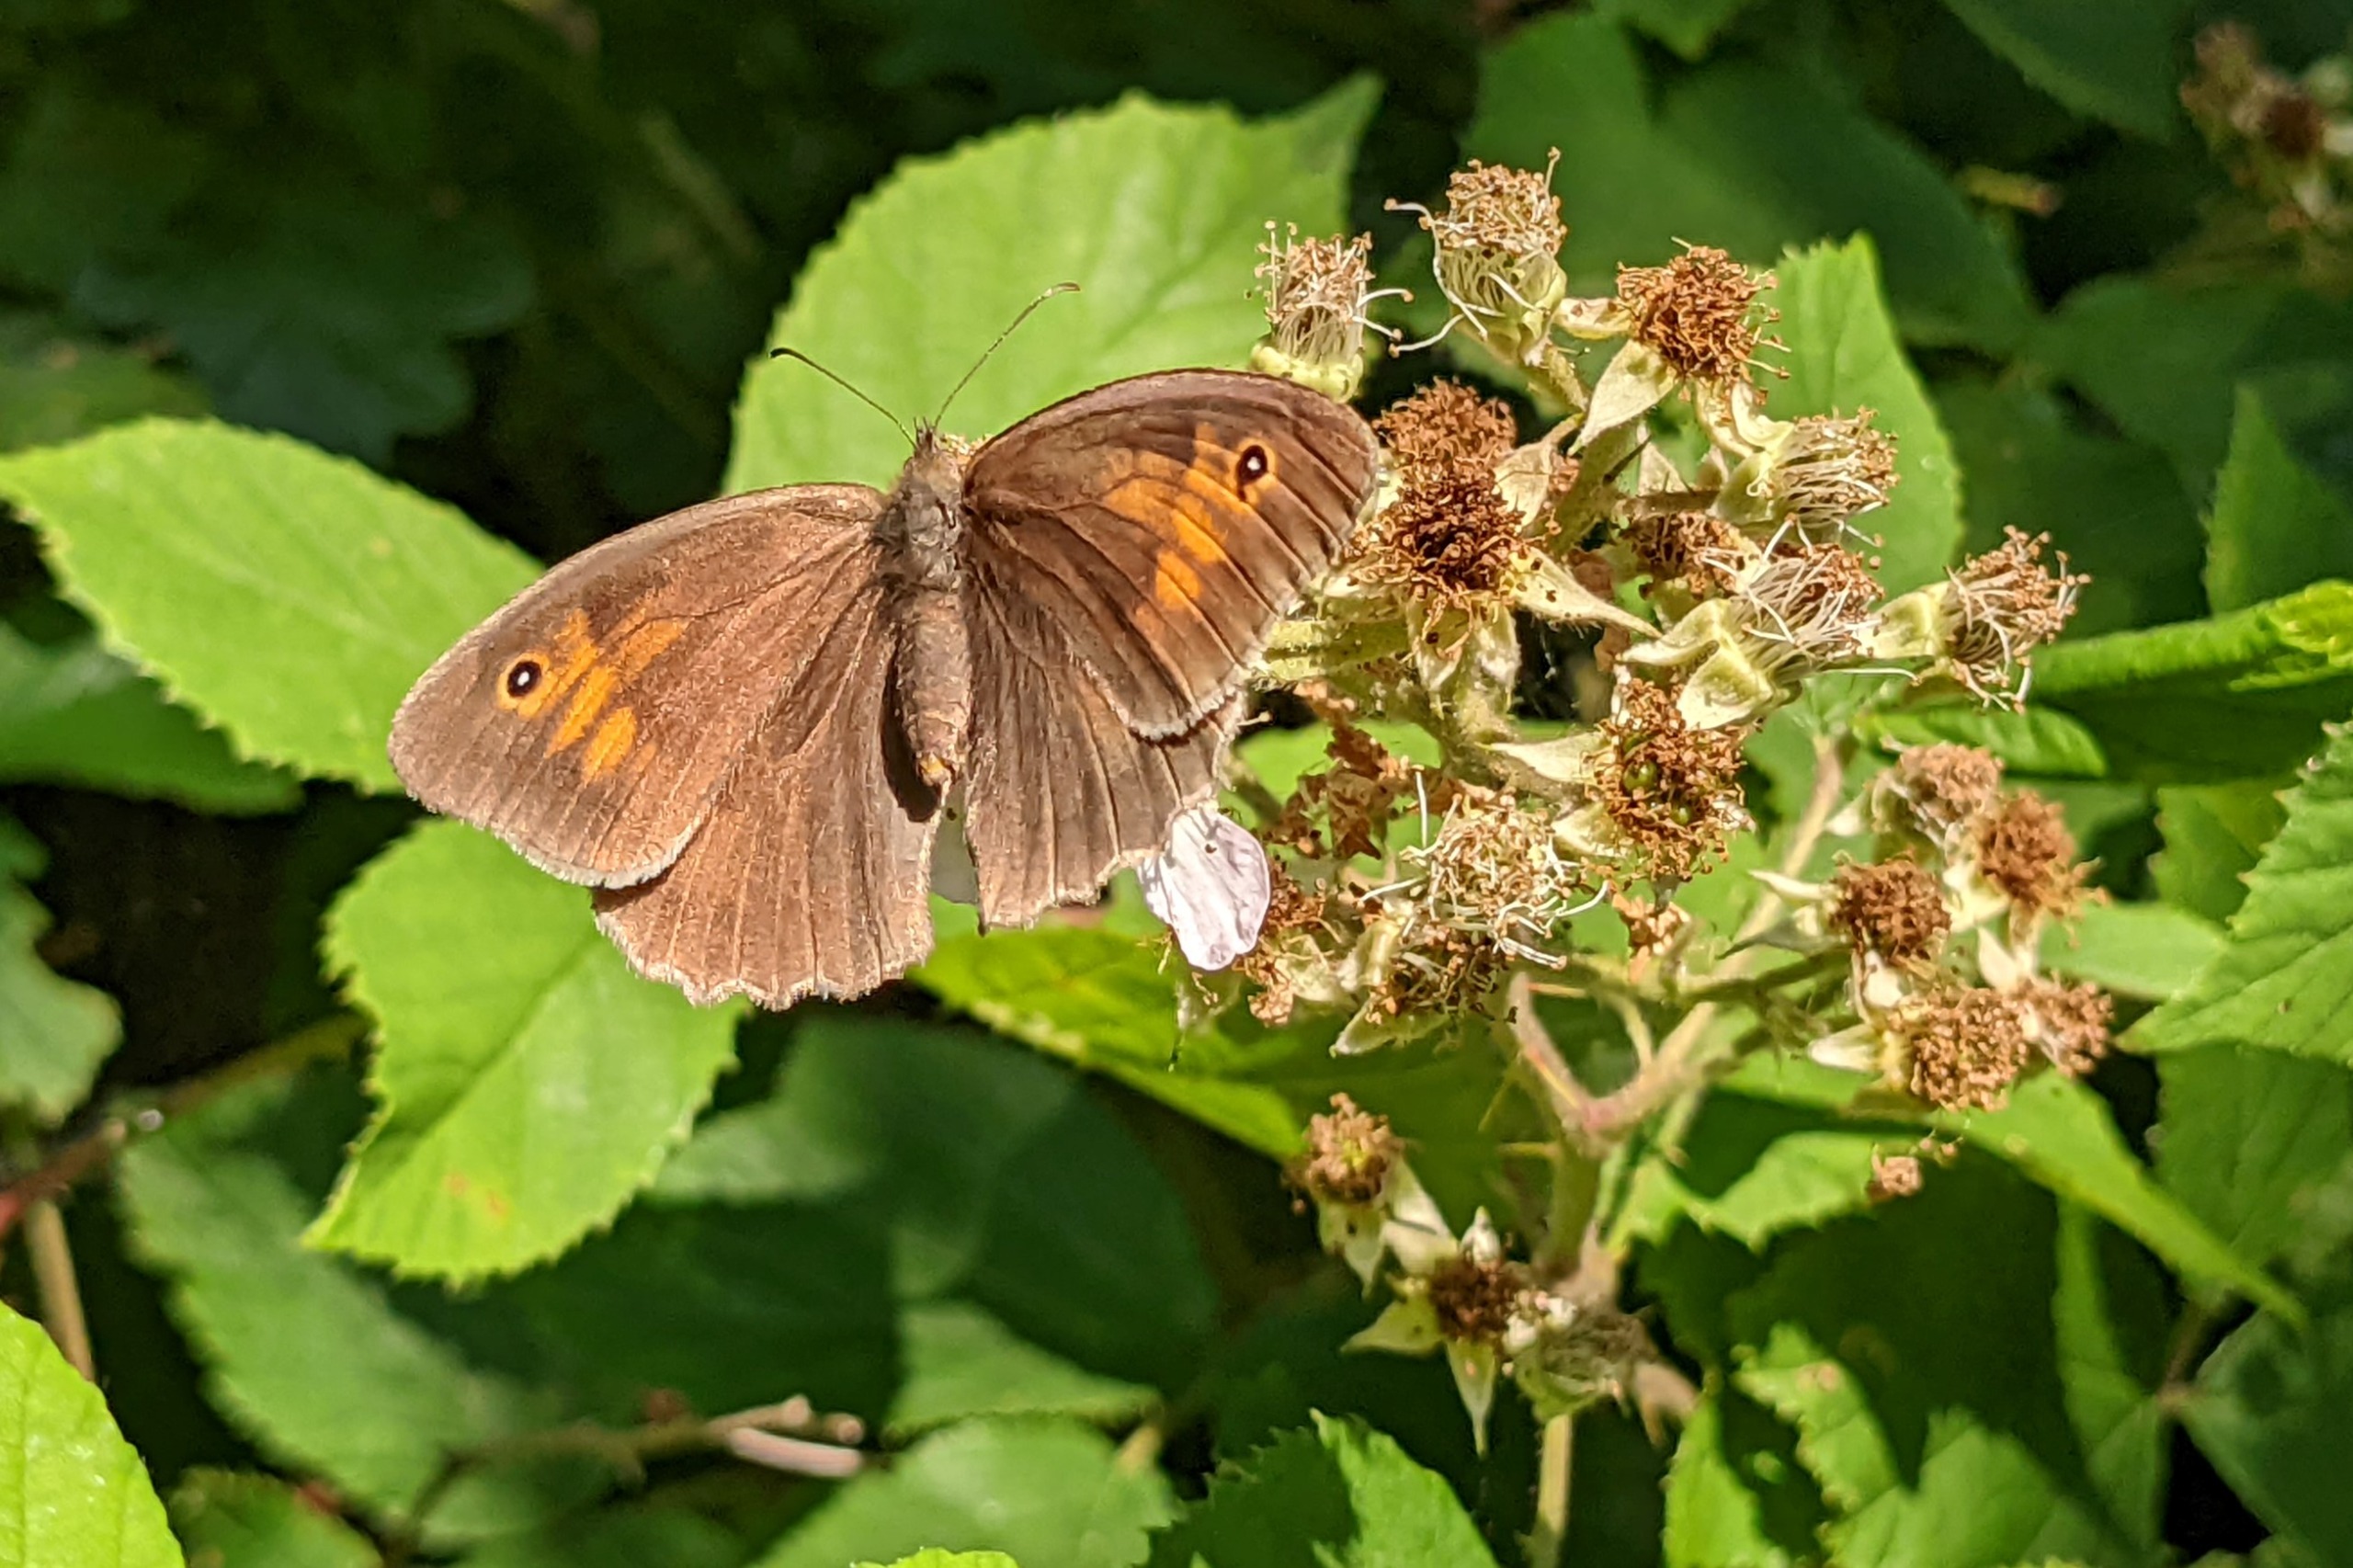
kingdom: Animalia
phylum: Arthropoda
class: Insecta
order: Lepidoptera
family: Nymphalidae
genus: Maniola
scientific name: Maniola jurtina
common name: Græsrandøje
